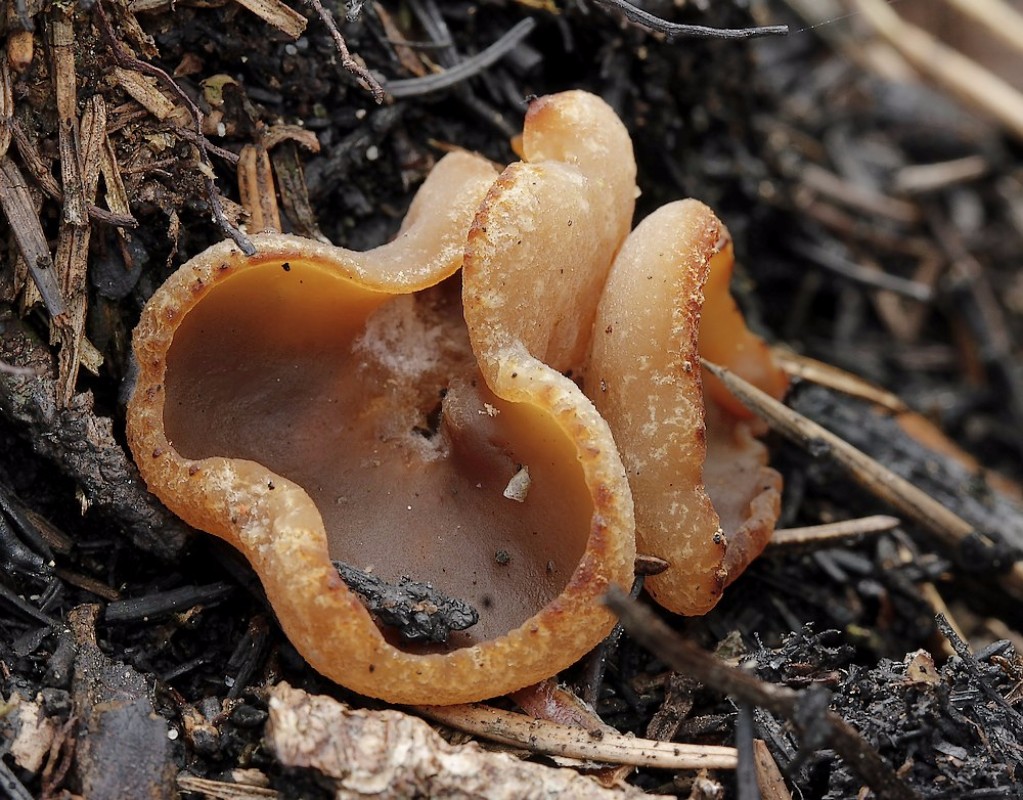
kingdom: Fungi
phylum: Ascomycota
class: Pezizomycetes
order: Pezizales
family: Pezizaceae
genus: Peziza
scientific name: Peziza echinospora
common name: pigsporet bægersvamp
